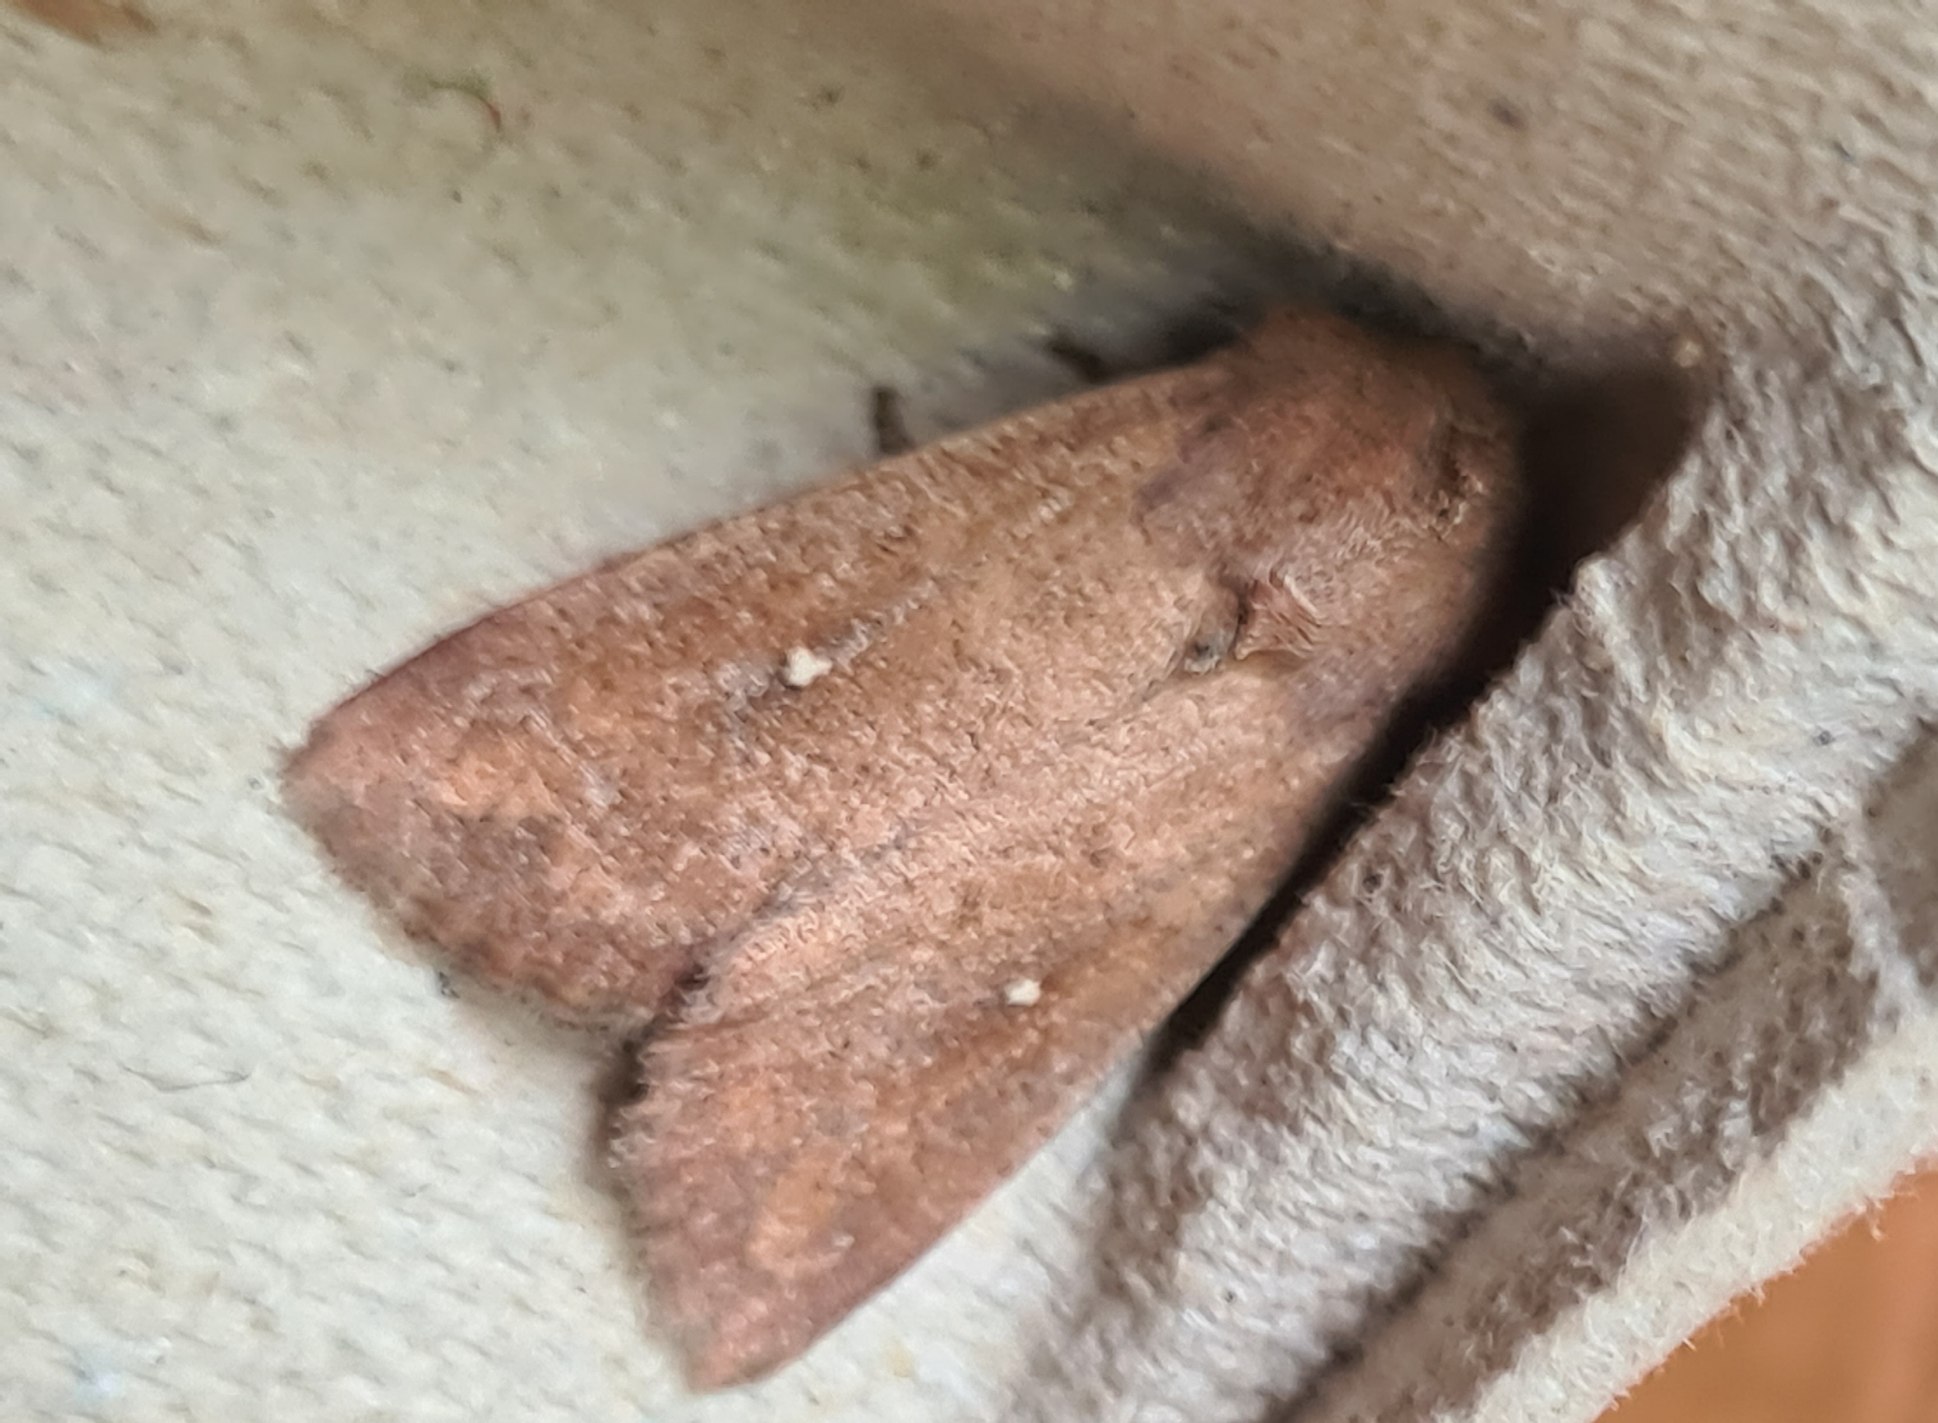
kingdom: Animalia
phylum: Arthropoda
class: Insecta
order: Lepidoptera
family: Noctuidae
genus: Mythimna
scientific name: Mythimna albipuncta
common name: Hvid-punkt græsugle
